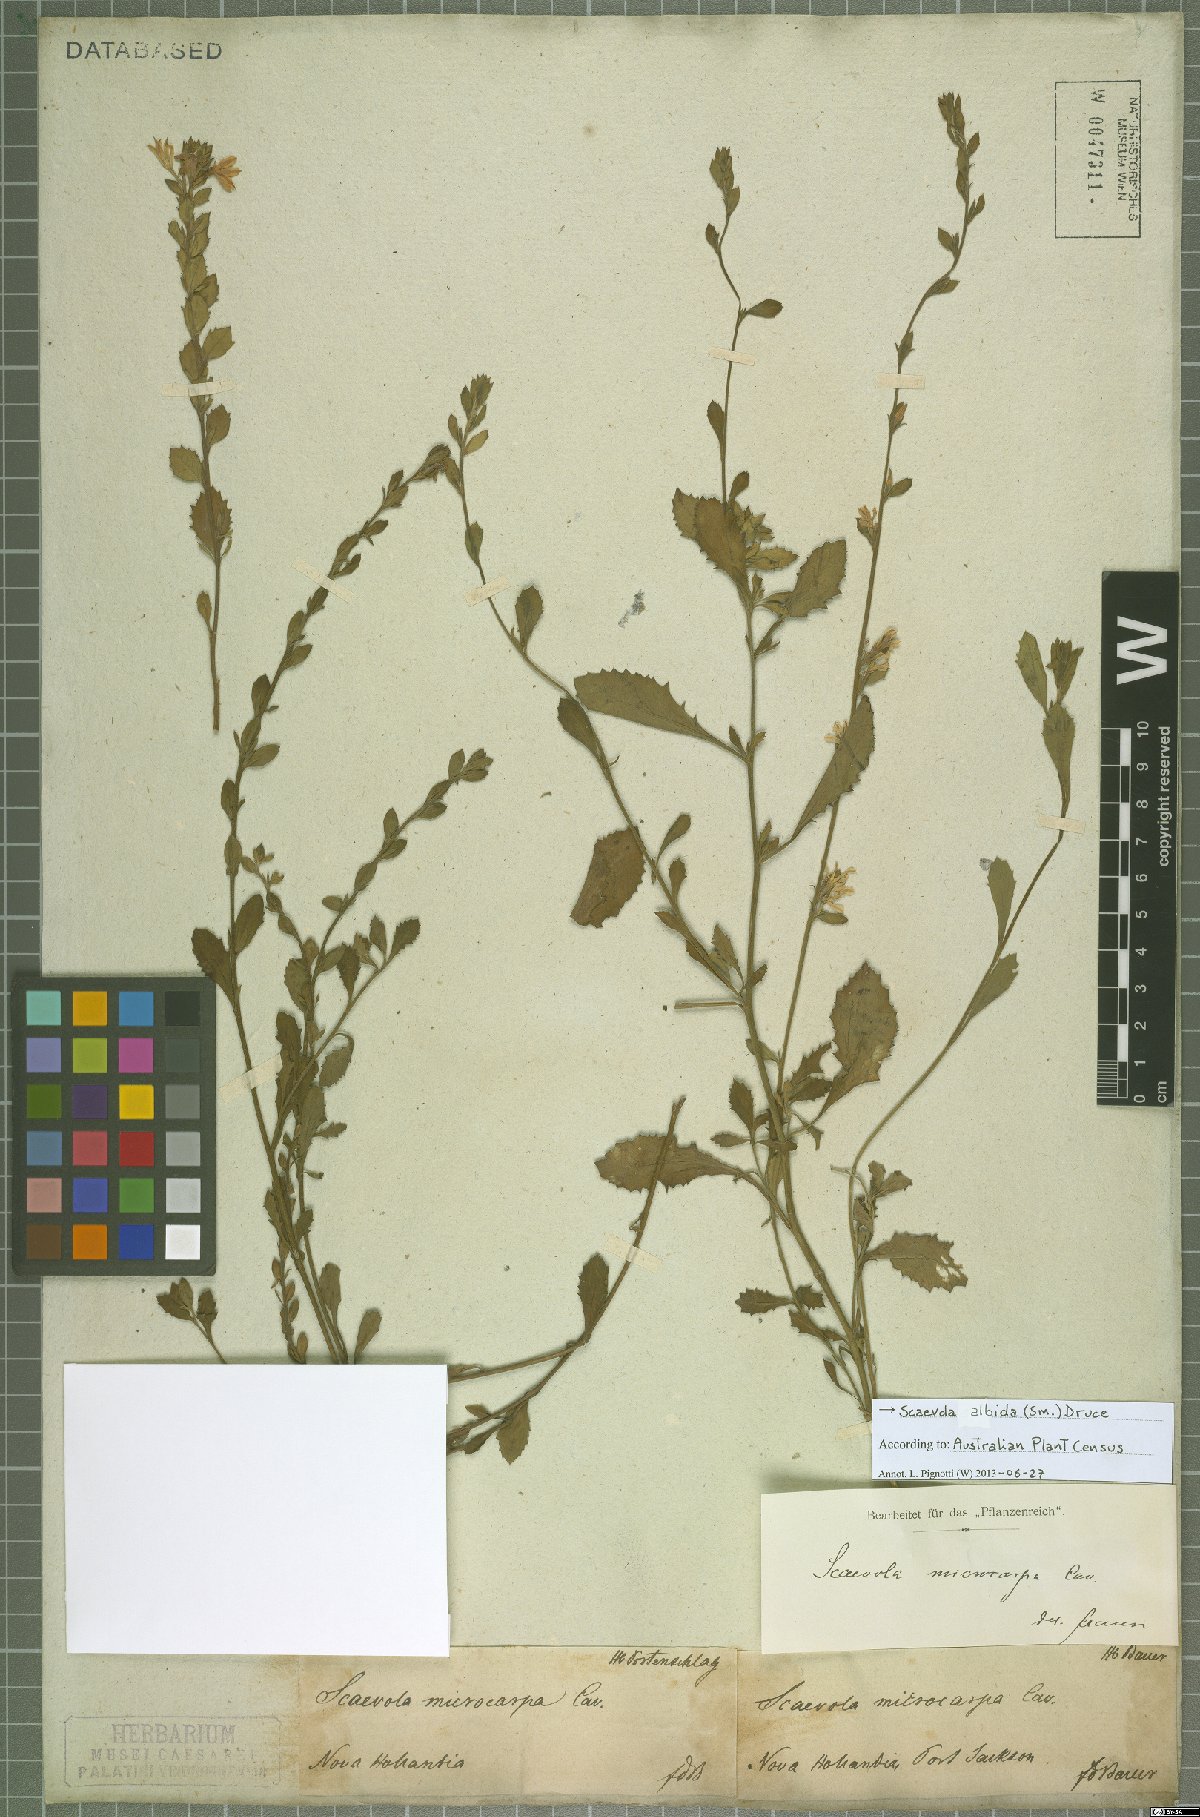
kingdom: Plantae
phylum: Tracheophyta
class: Magnoliopsida
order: Asterales
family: Goodeniaceae
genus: Scaevola
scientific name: Scaevola albida
